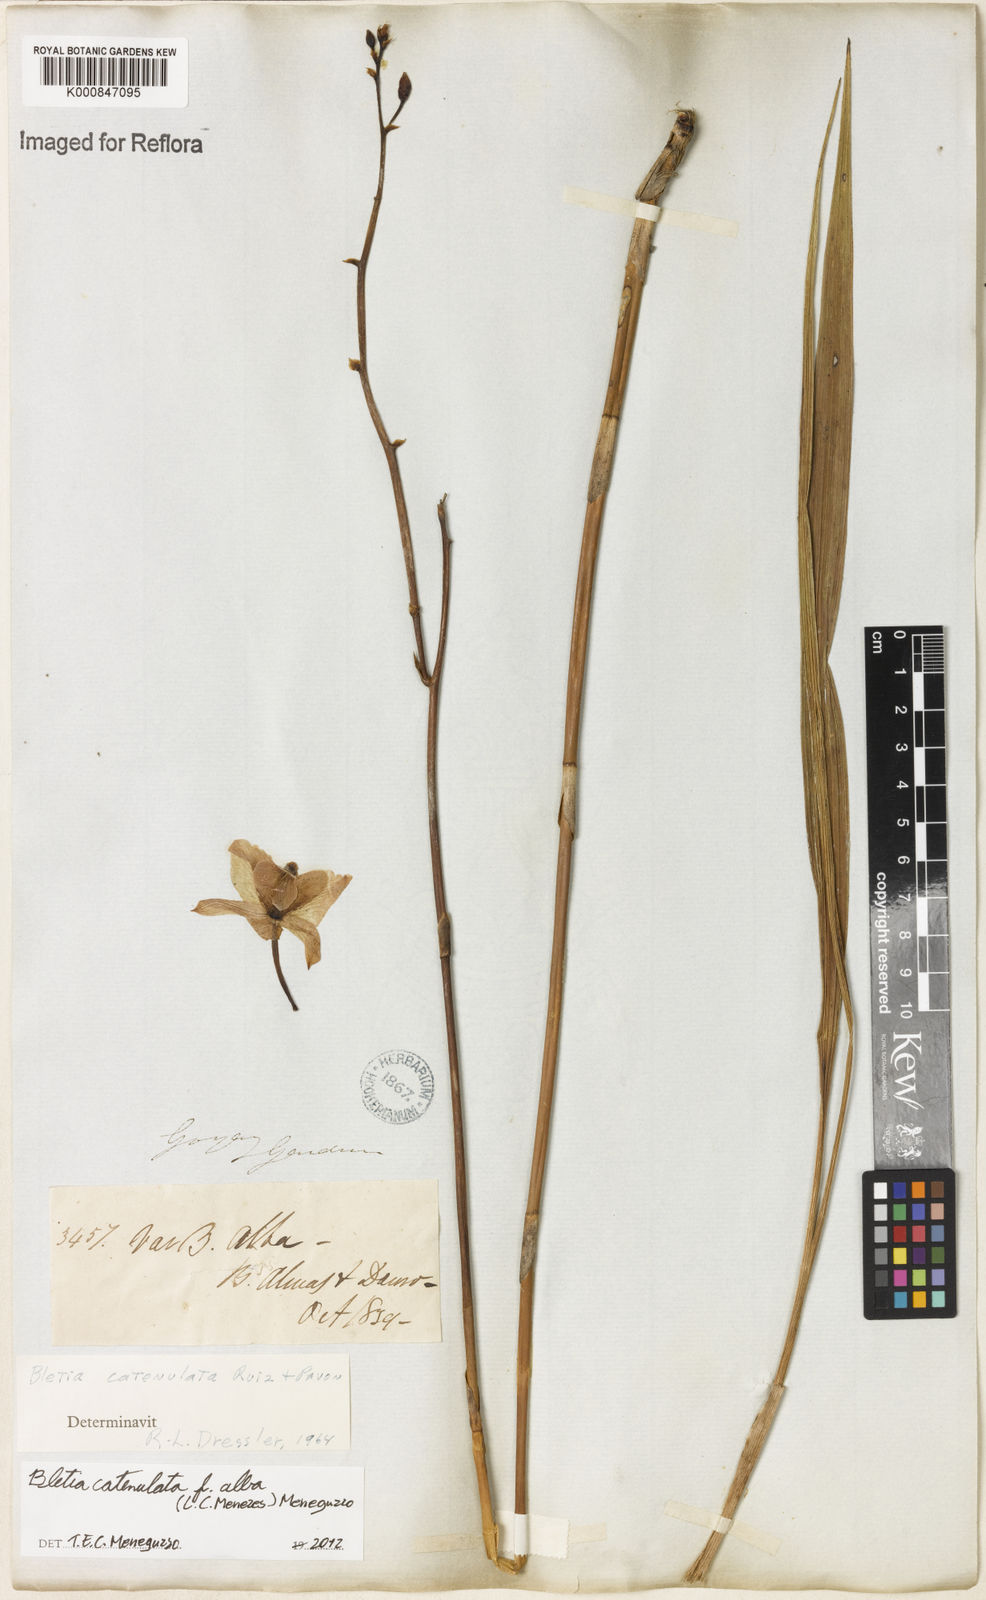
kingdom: Plantae
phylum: Tracheophyta
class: Liliopsida
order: Asparagales
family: Orchidaceae
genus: Bletia
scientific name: Bletia catenulata
